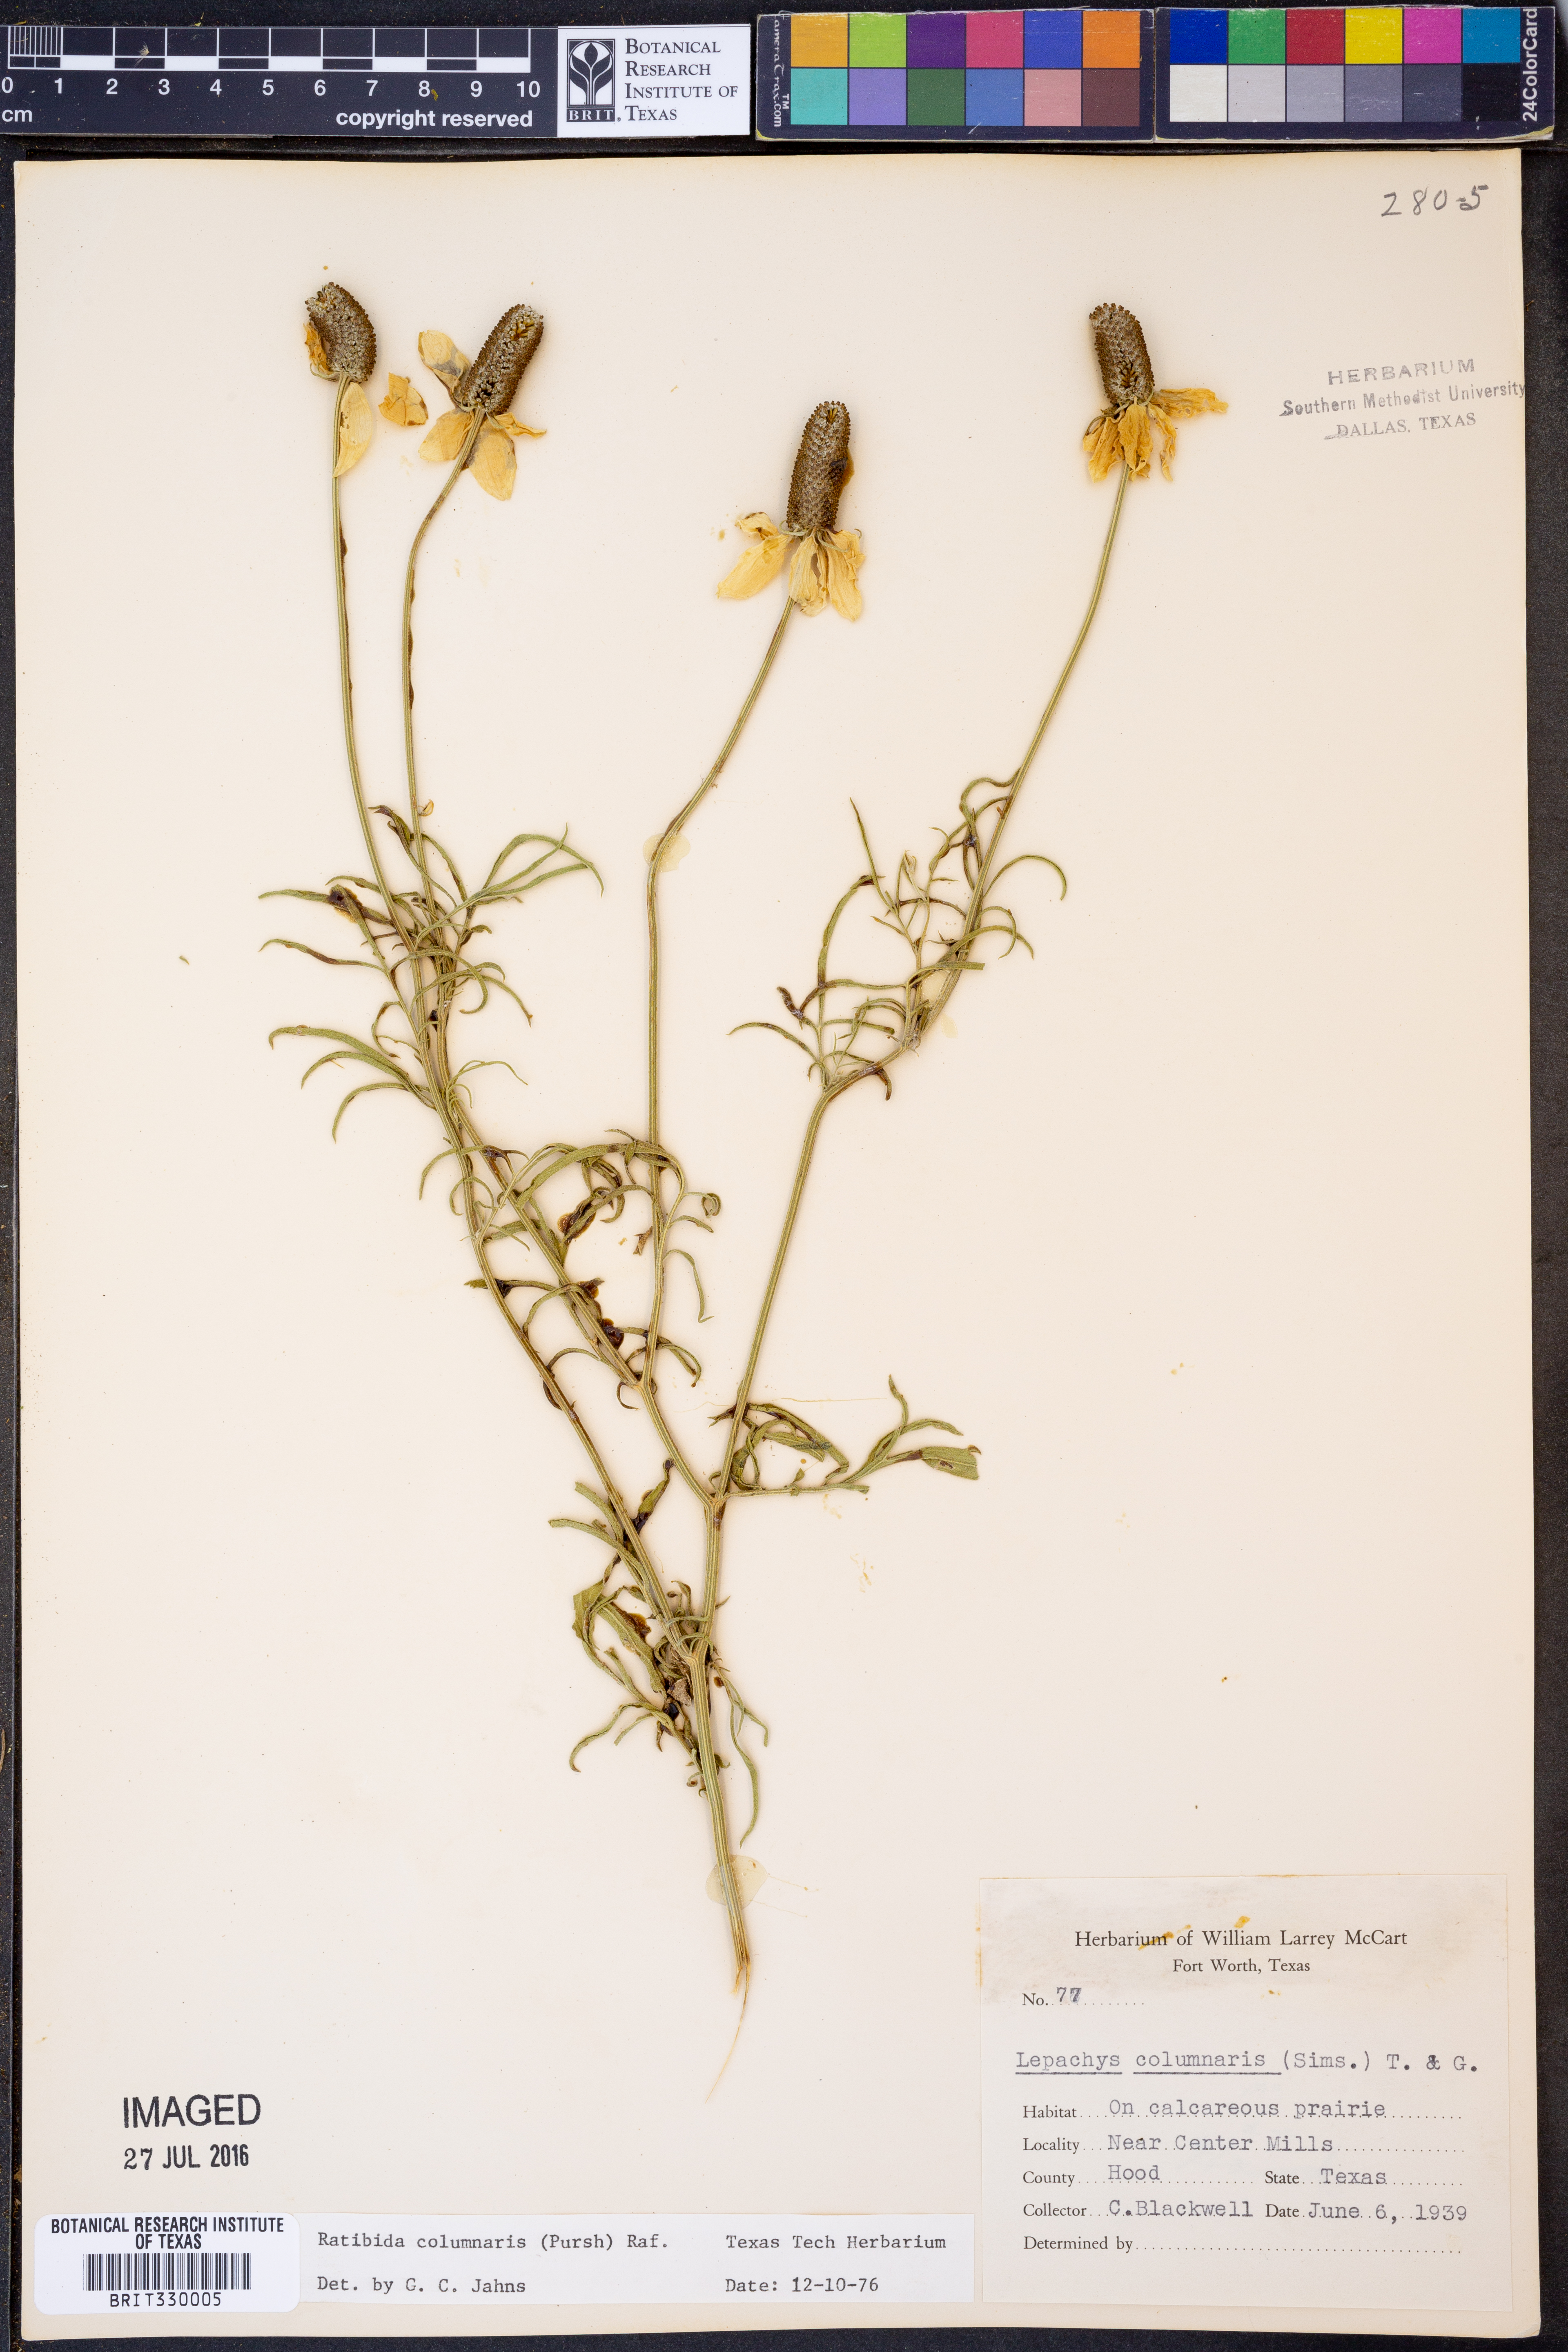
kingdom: Plantae
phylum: Tracheophyta
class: Magnoliopsida
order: Asterales
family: Asteraceae
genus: Ratibida
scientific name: Ratibida columnifera
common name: Prairie coneflower
